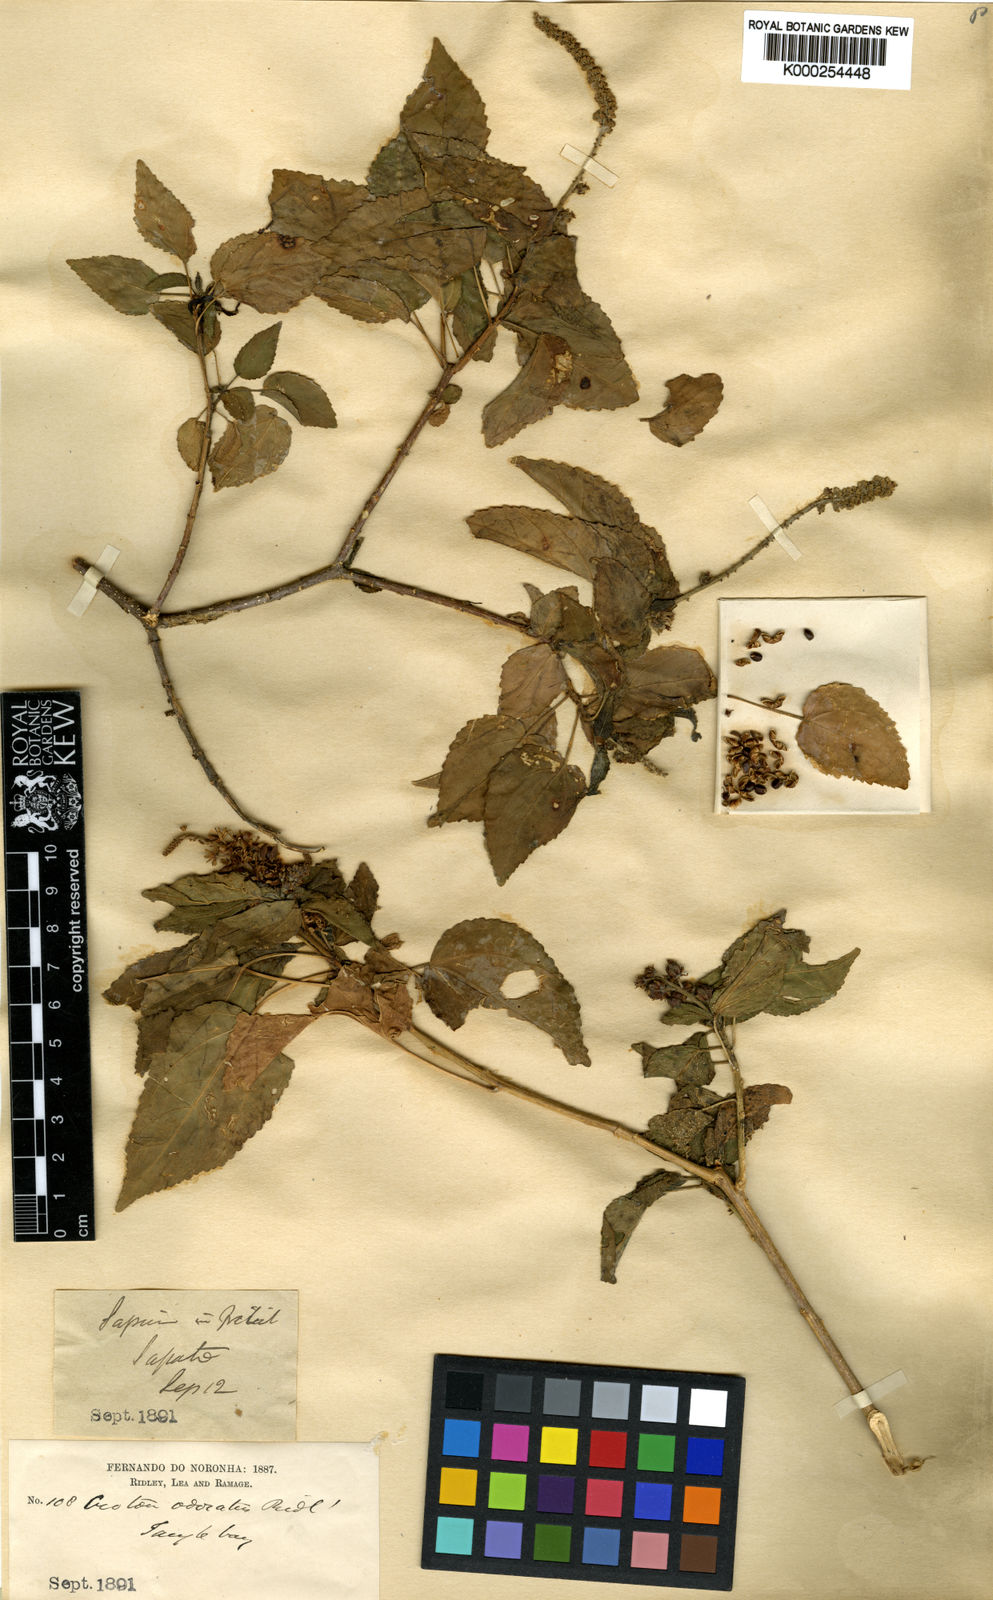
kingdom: Plantae
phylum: Tracheophyta
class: Magnoliopsida
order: Malpighiales
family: Euphorbiaceae
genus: Croton
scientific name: Croton hircinus
